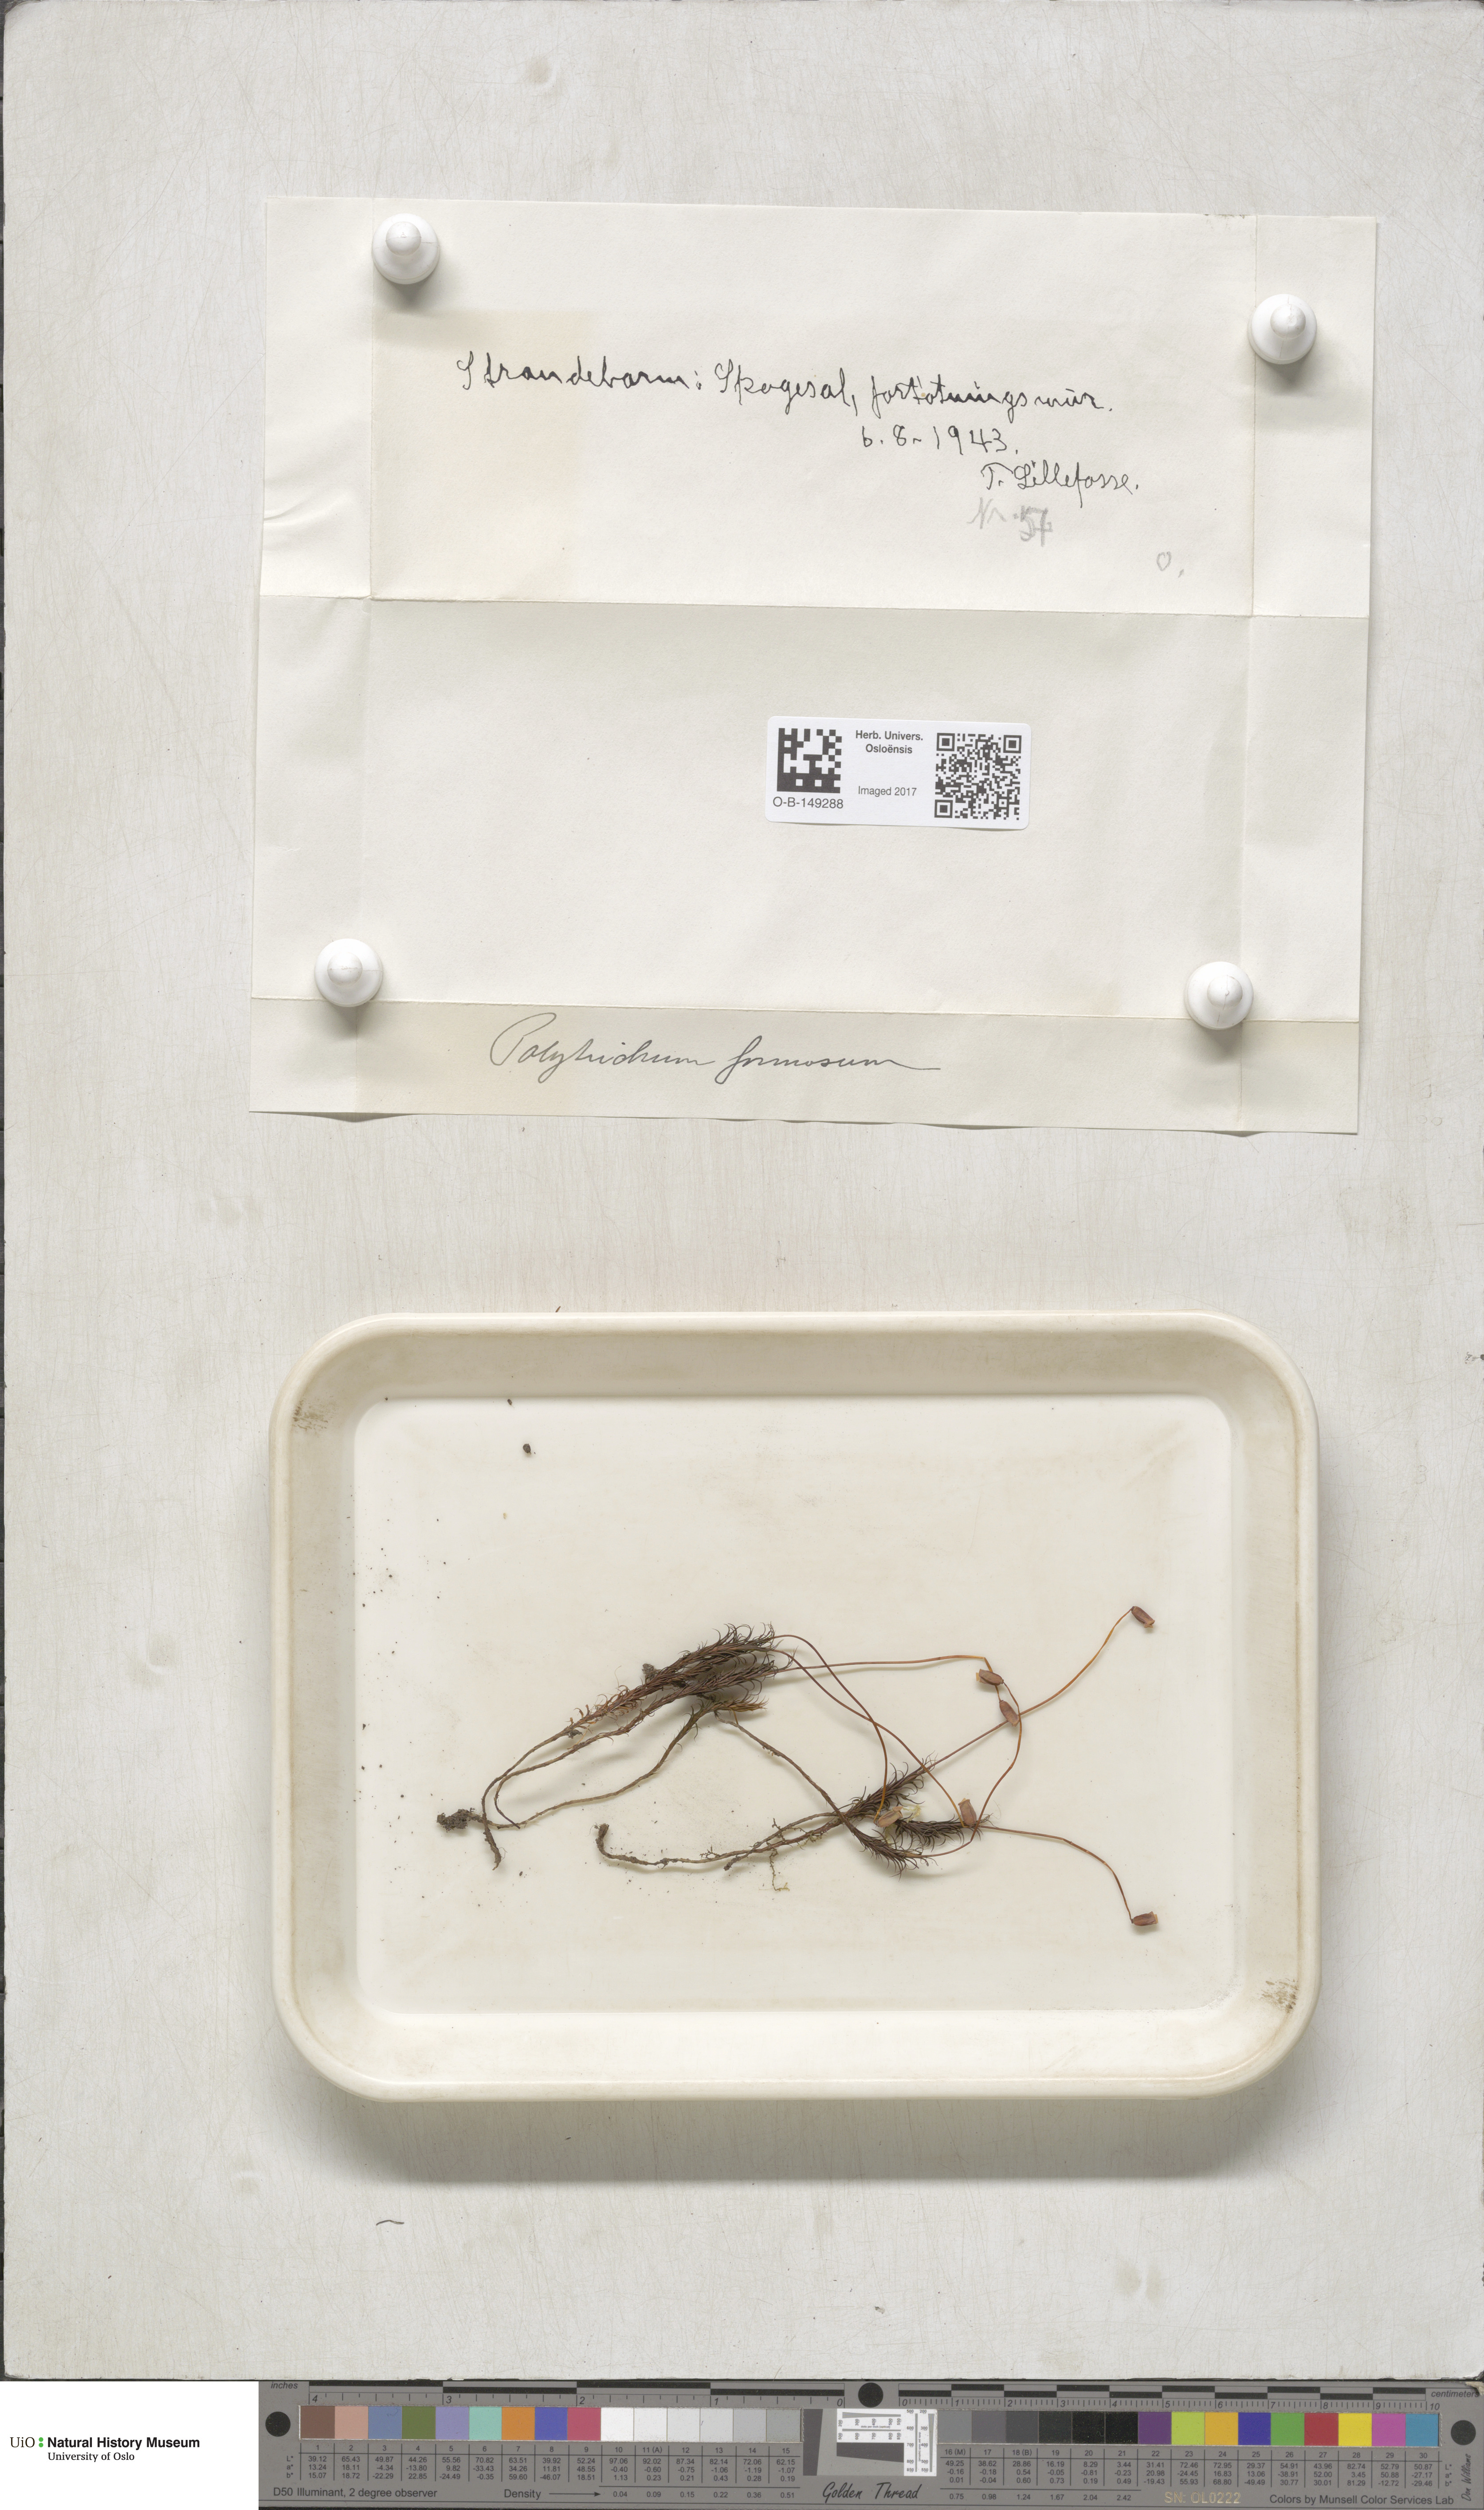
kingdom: Plantae
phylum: Bryophyta
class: Polytrichopsida
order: Polytrichales
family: Polytrichaceae
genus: Polytrichum
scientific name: Polytrichum formosum
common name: Bank haircap moss
